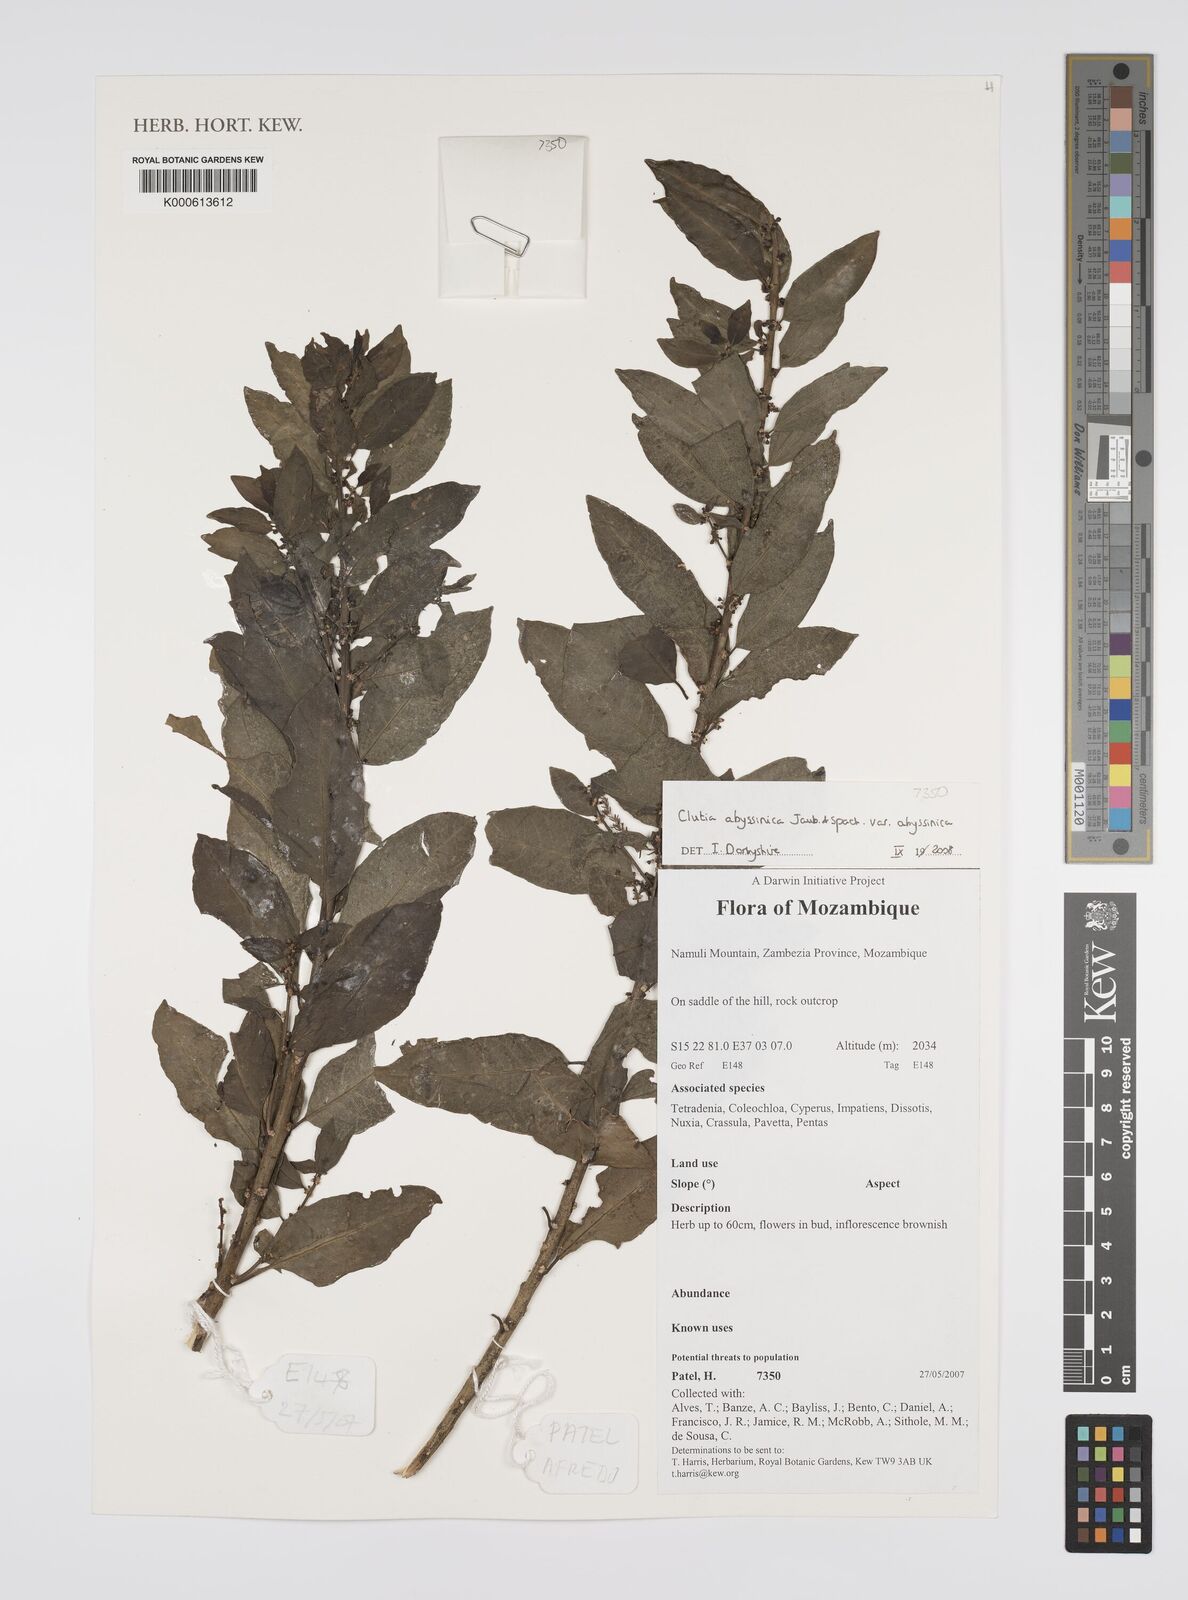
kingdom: Plantae
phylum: Tracheophyta
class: Magnoliopsida
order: Malpighiales
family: Peraceae
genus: Clutia
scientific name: Clutia abyssinica
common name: Large lightning bush
